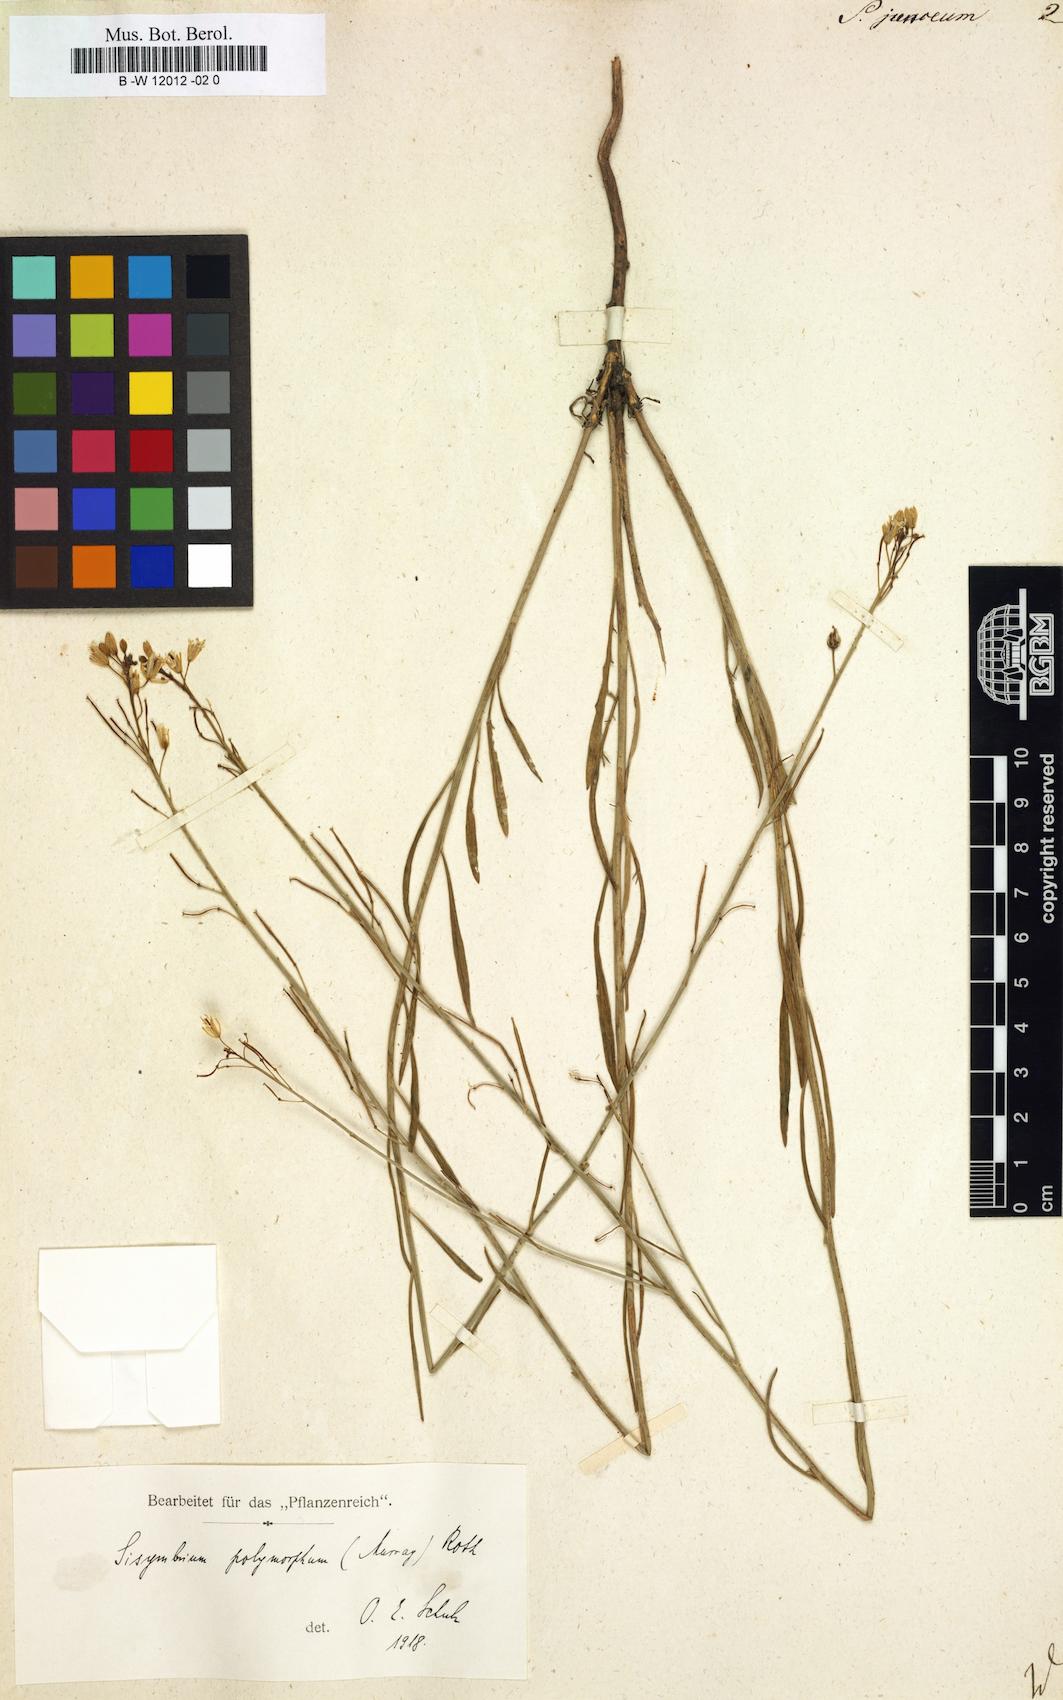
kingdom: Plantae
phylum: Tracheophyta
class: Magnoliopsida
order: Brassicales
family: Brassicaceae
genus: Sisymbrium
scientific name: Sisymbrium
